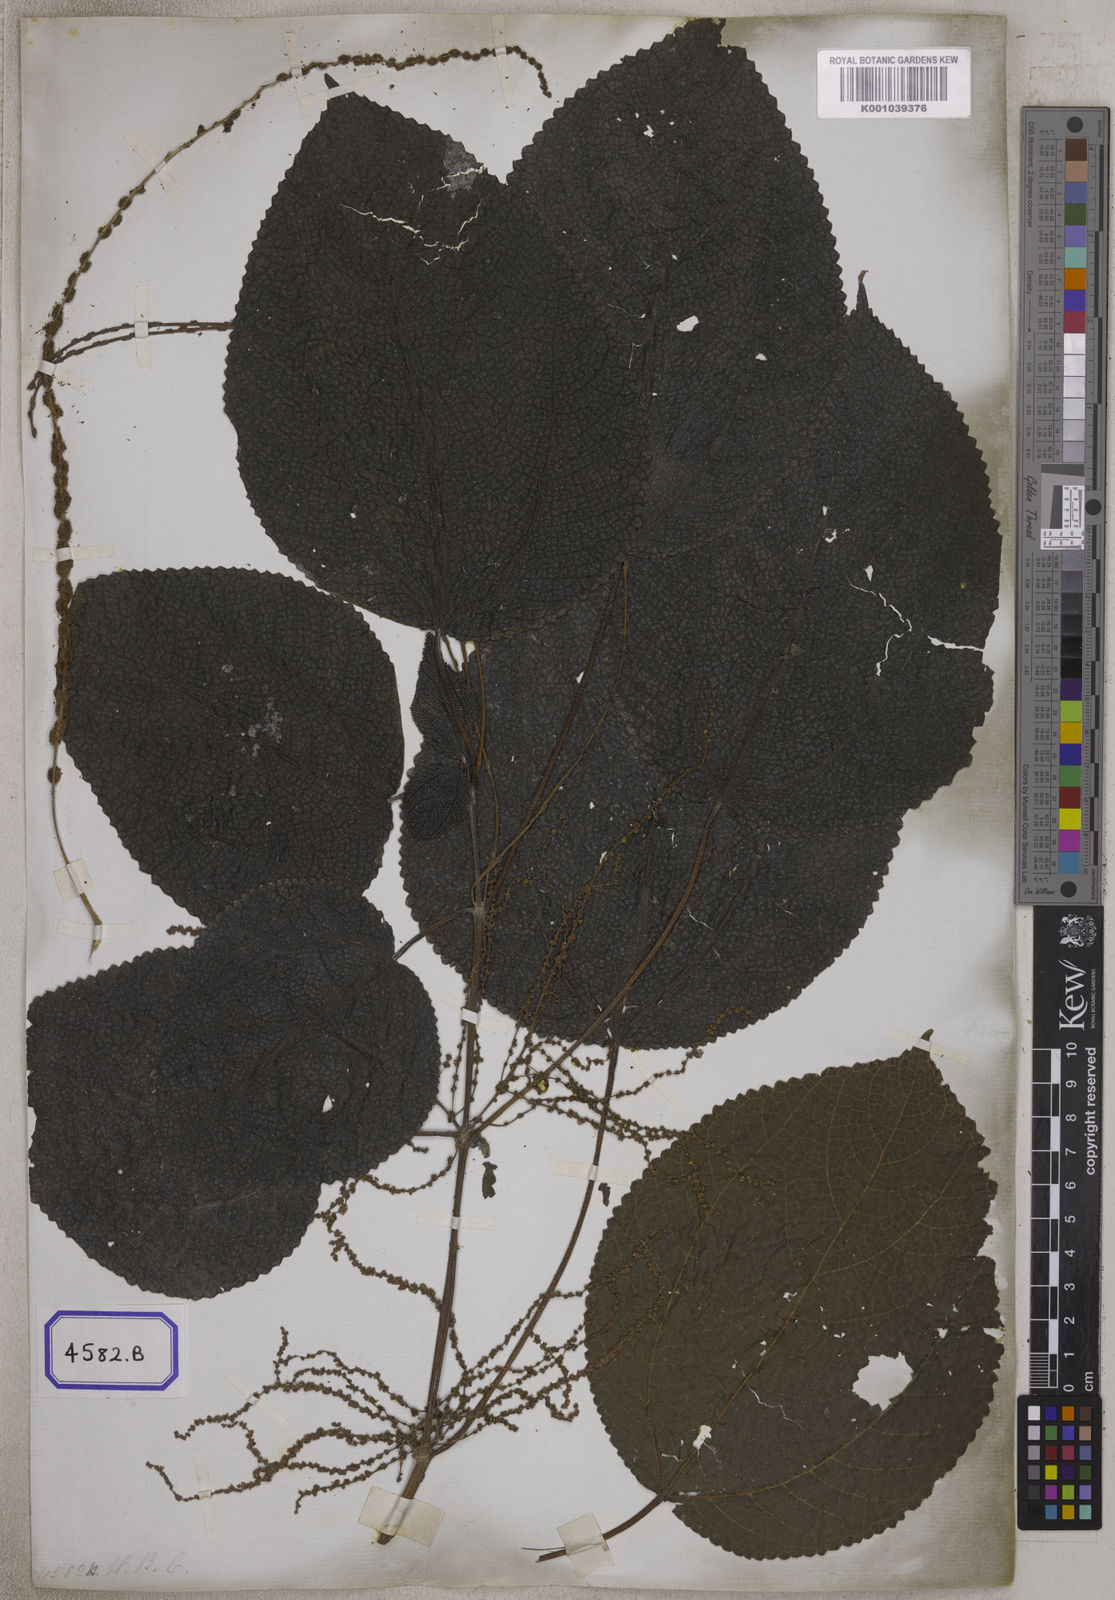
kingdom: Plantae
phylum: Tracheophyta
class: Magnoliopsida
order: Rosales
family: Urticaceae
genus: Boehmeria
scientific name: Boehmeria virgata
